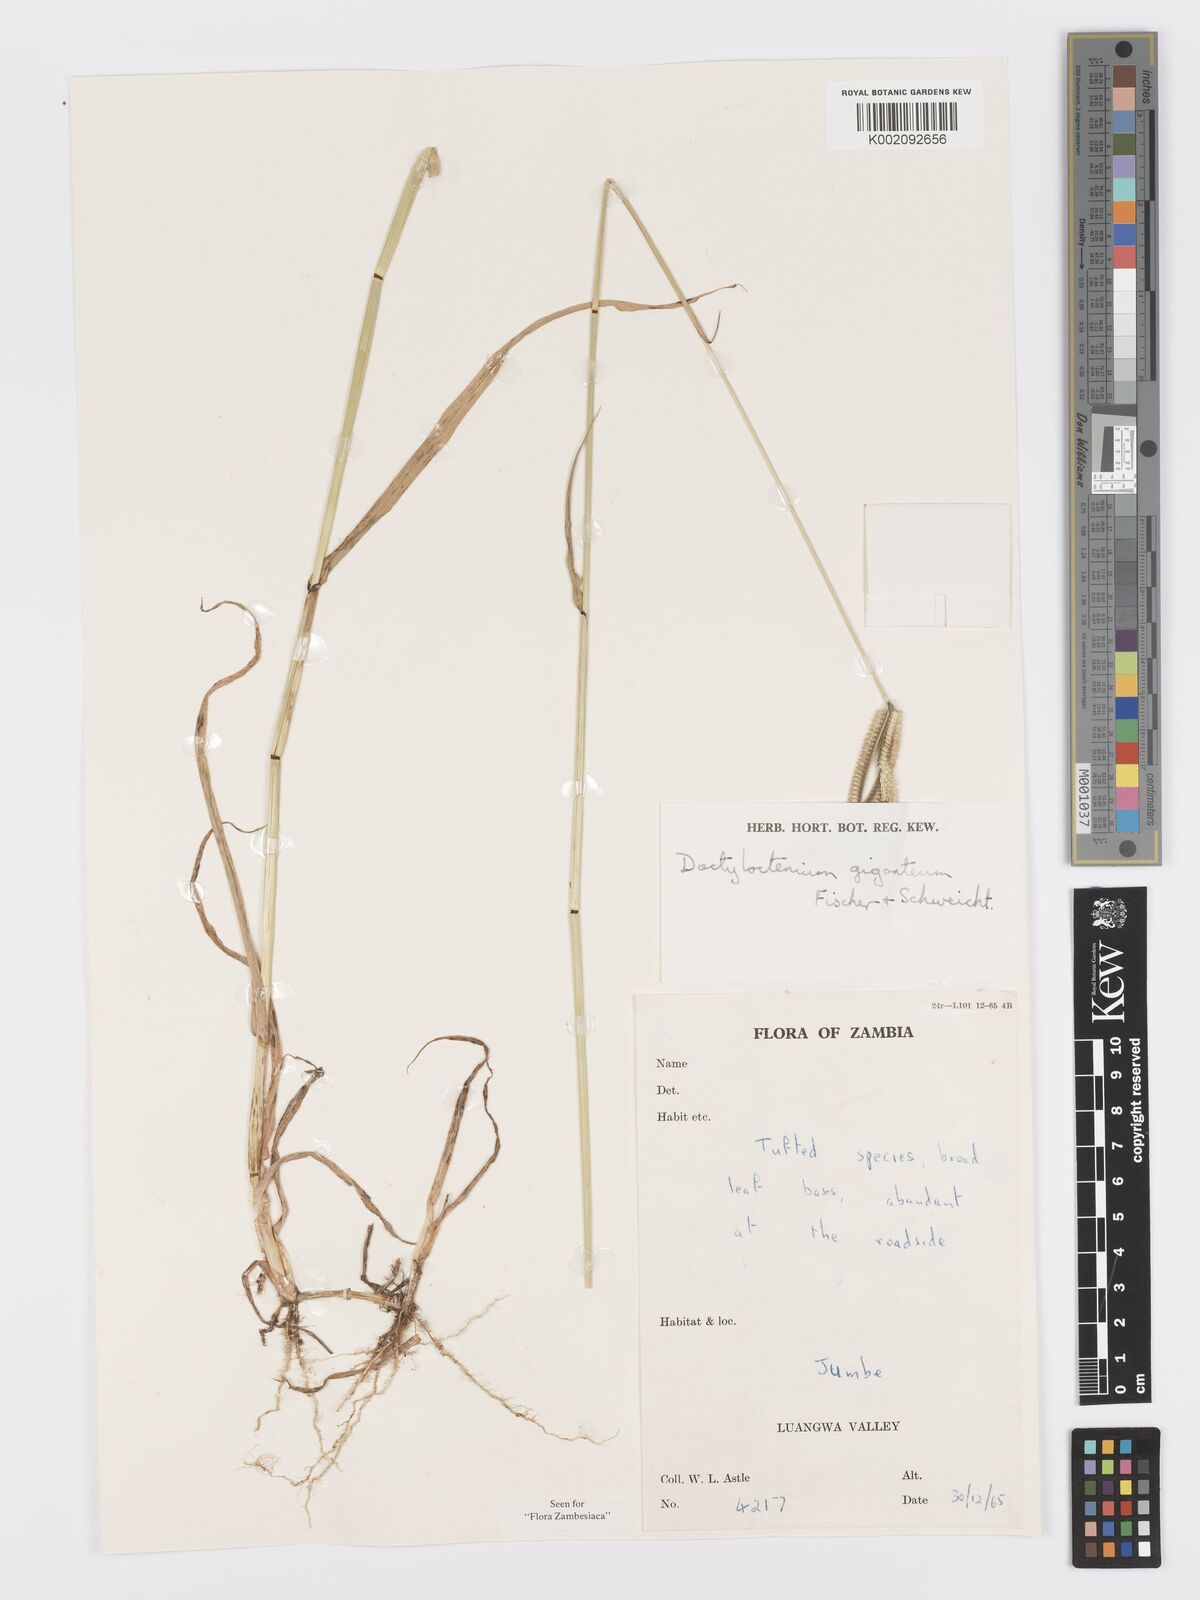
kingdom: Plantae
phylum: Tracheophyta
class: Liliopsida
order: Poales
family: Poaceae
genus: Dactyloctenium
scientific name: Dactyloctenium giganteum
